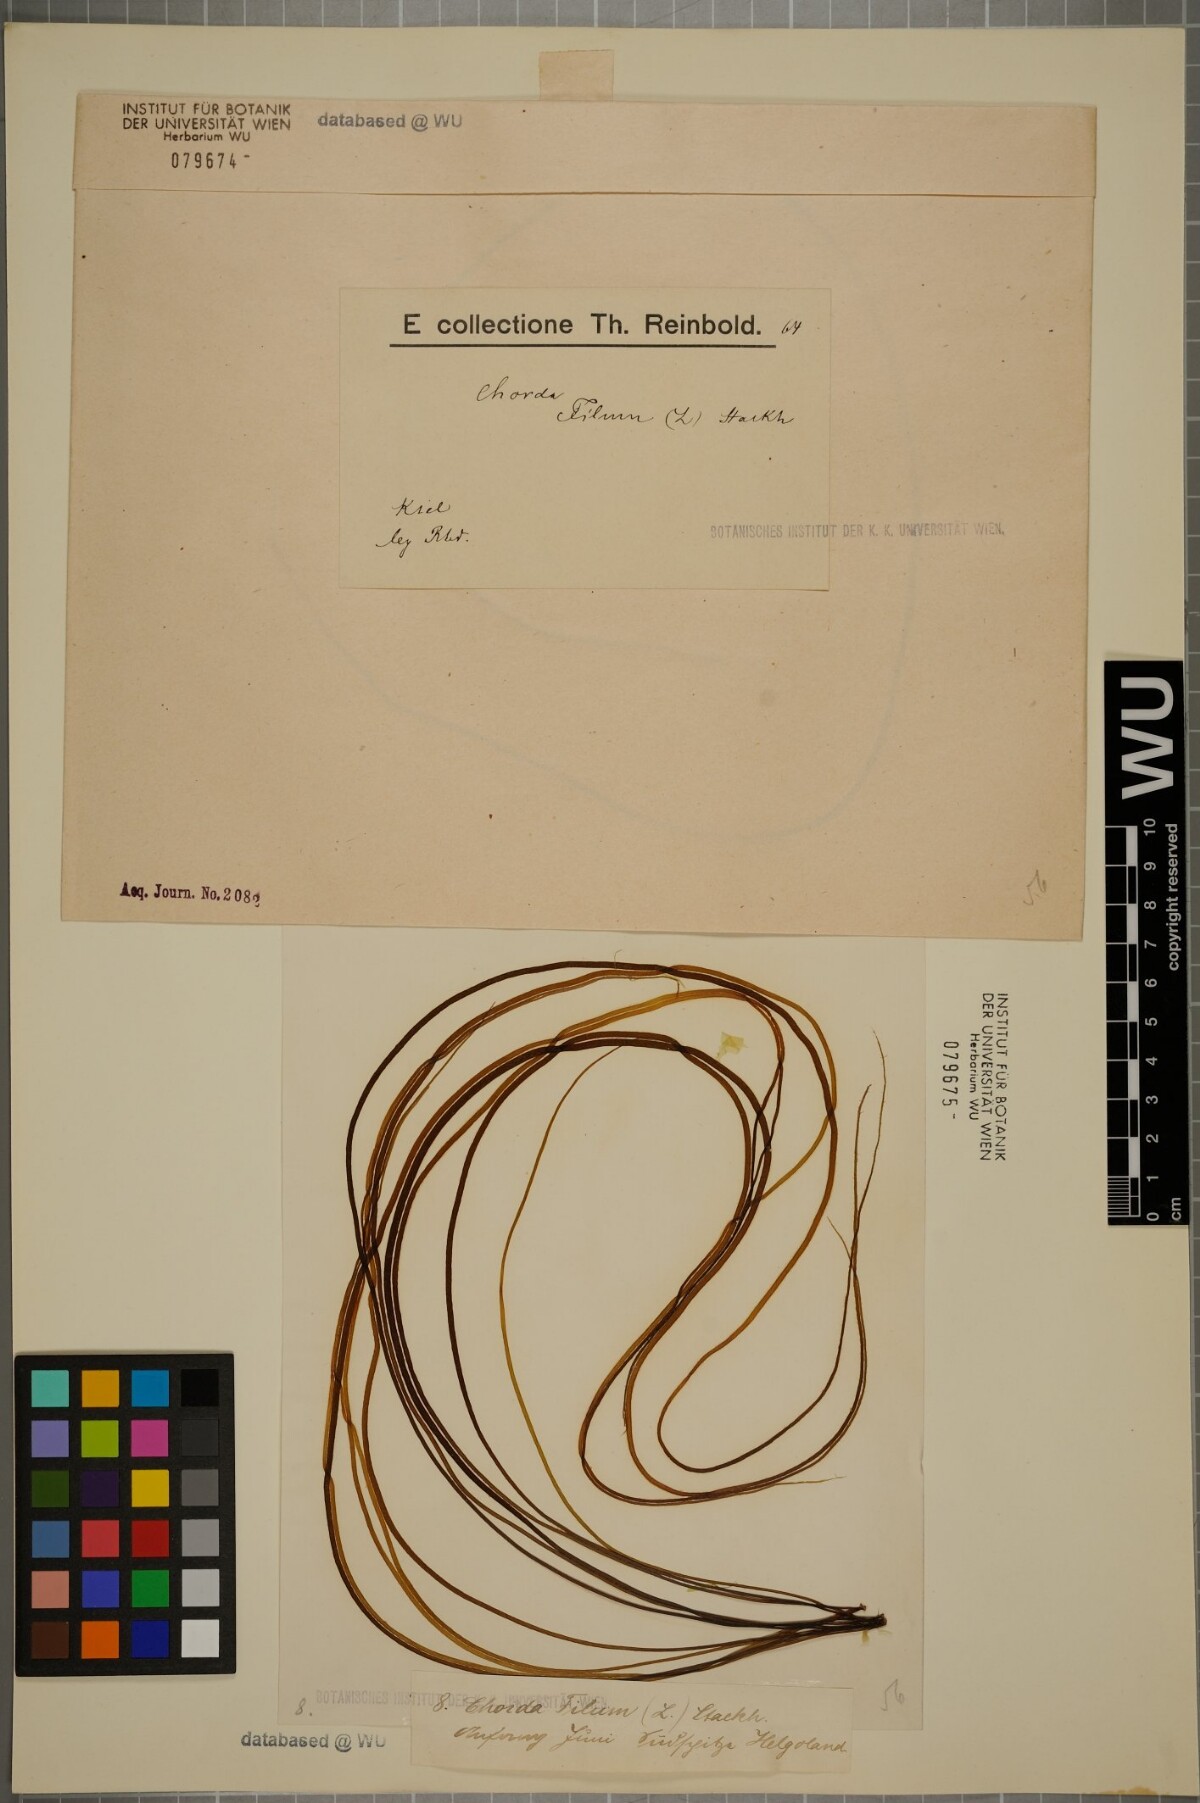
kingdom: Chromista
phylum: Ochrophyta
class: Phaeophyceae
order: Laminariales
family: Chordaceae
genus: Chorda
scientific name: Chorda filum
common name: Mermaid's tresses
